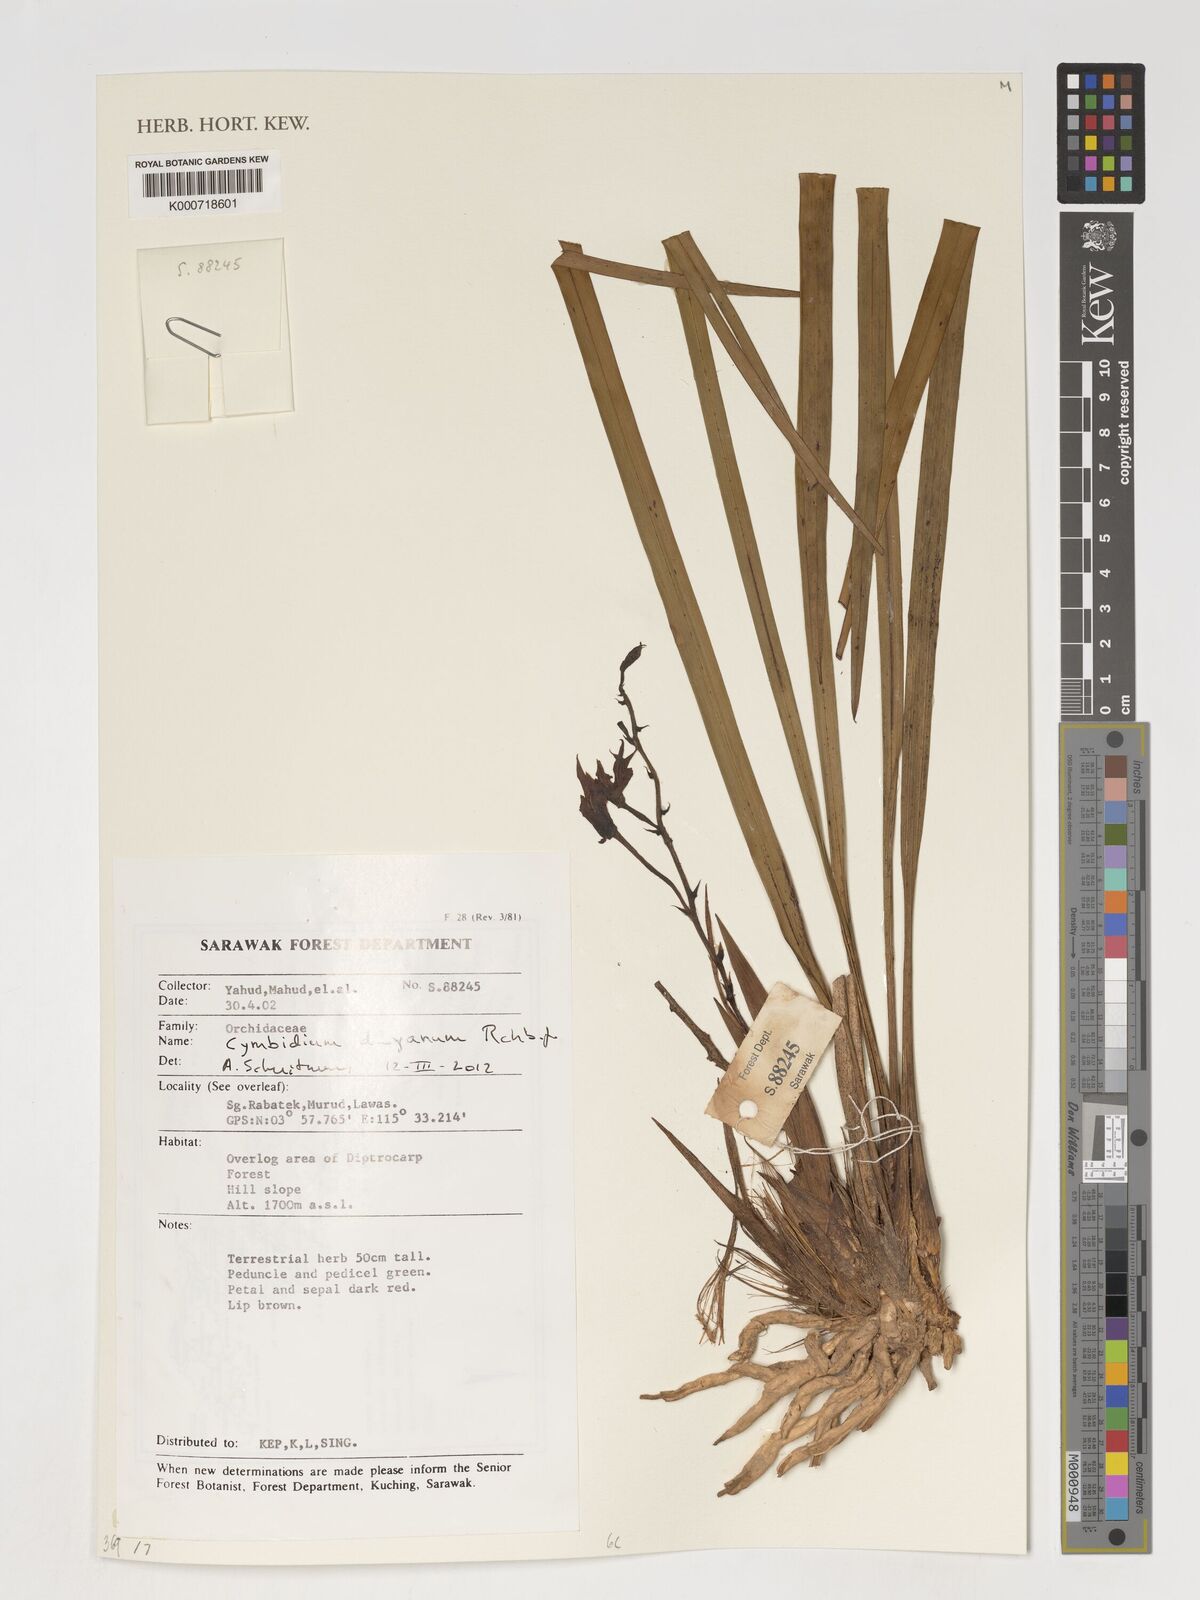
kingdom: Plantae
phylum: Tracheophyta
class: Liliopsida
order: Asparagales
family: Orchidaceae
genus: Cymbidium
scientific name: Cymbidium dayanum
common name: Orchid
